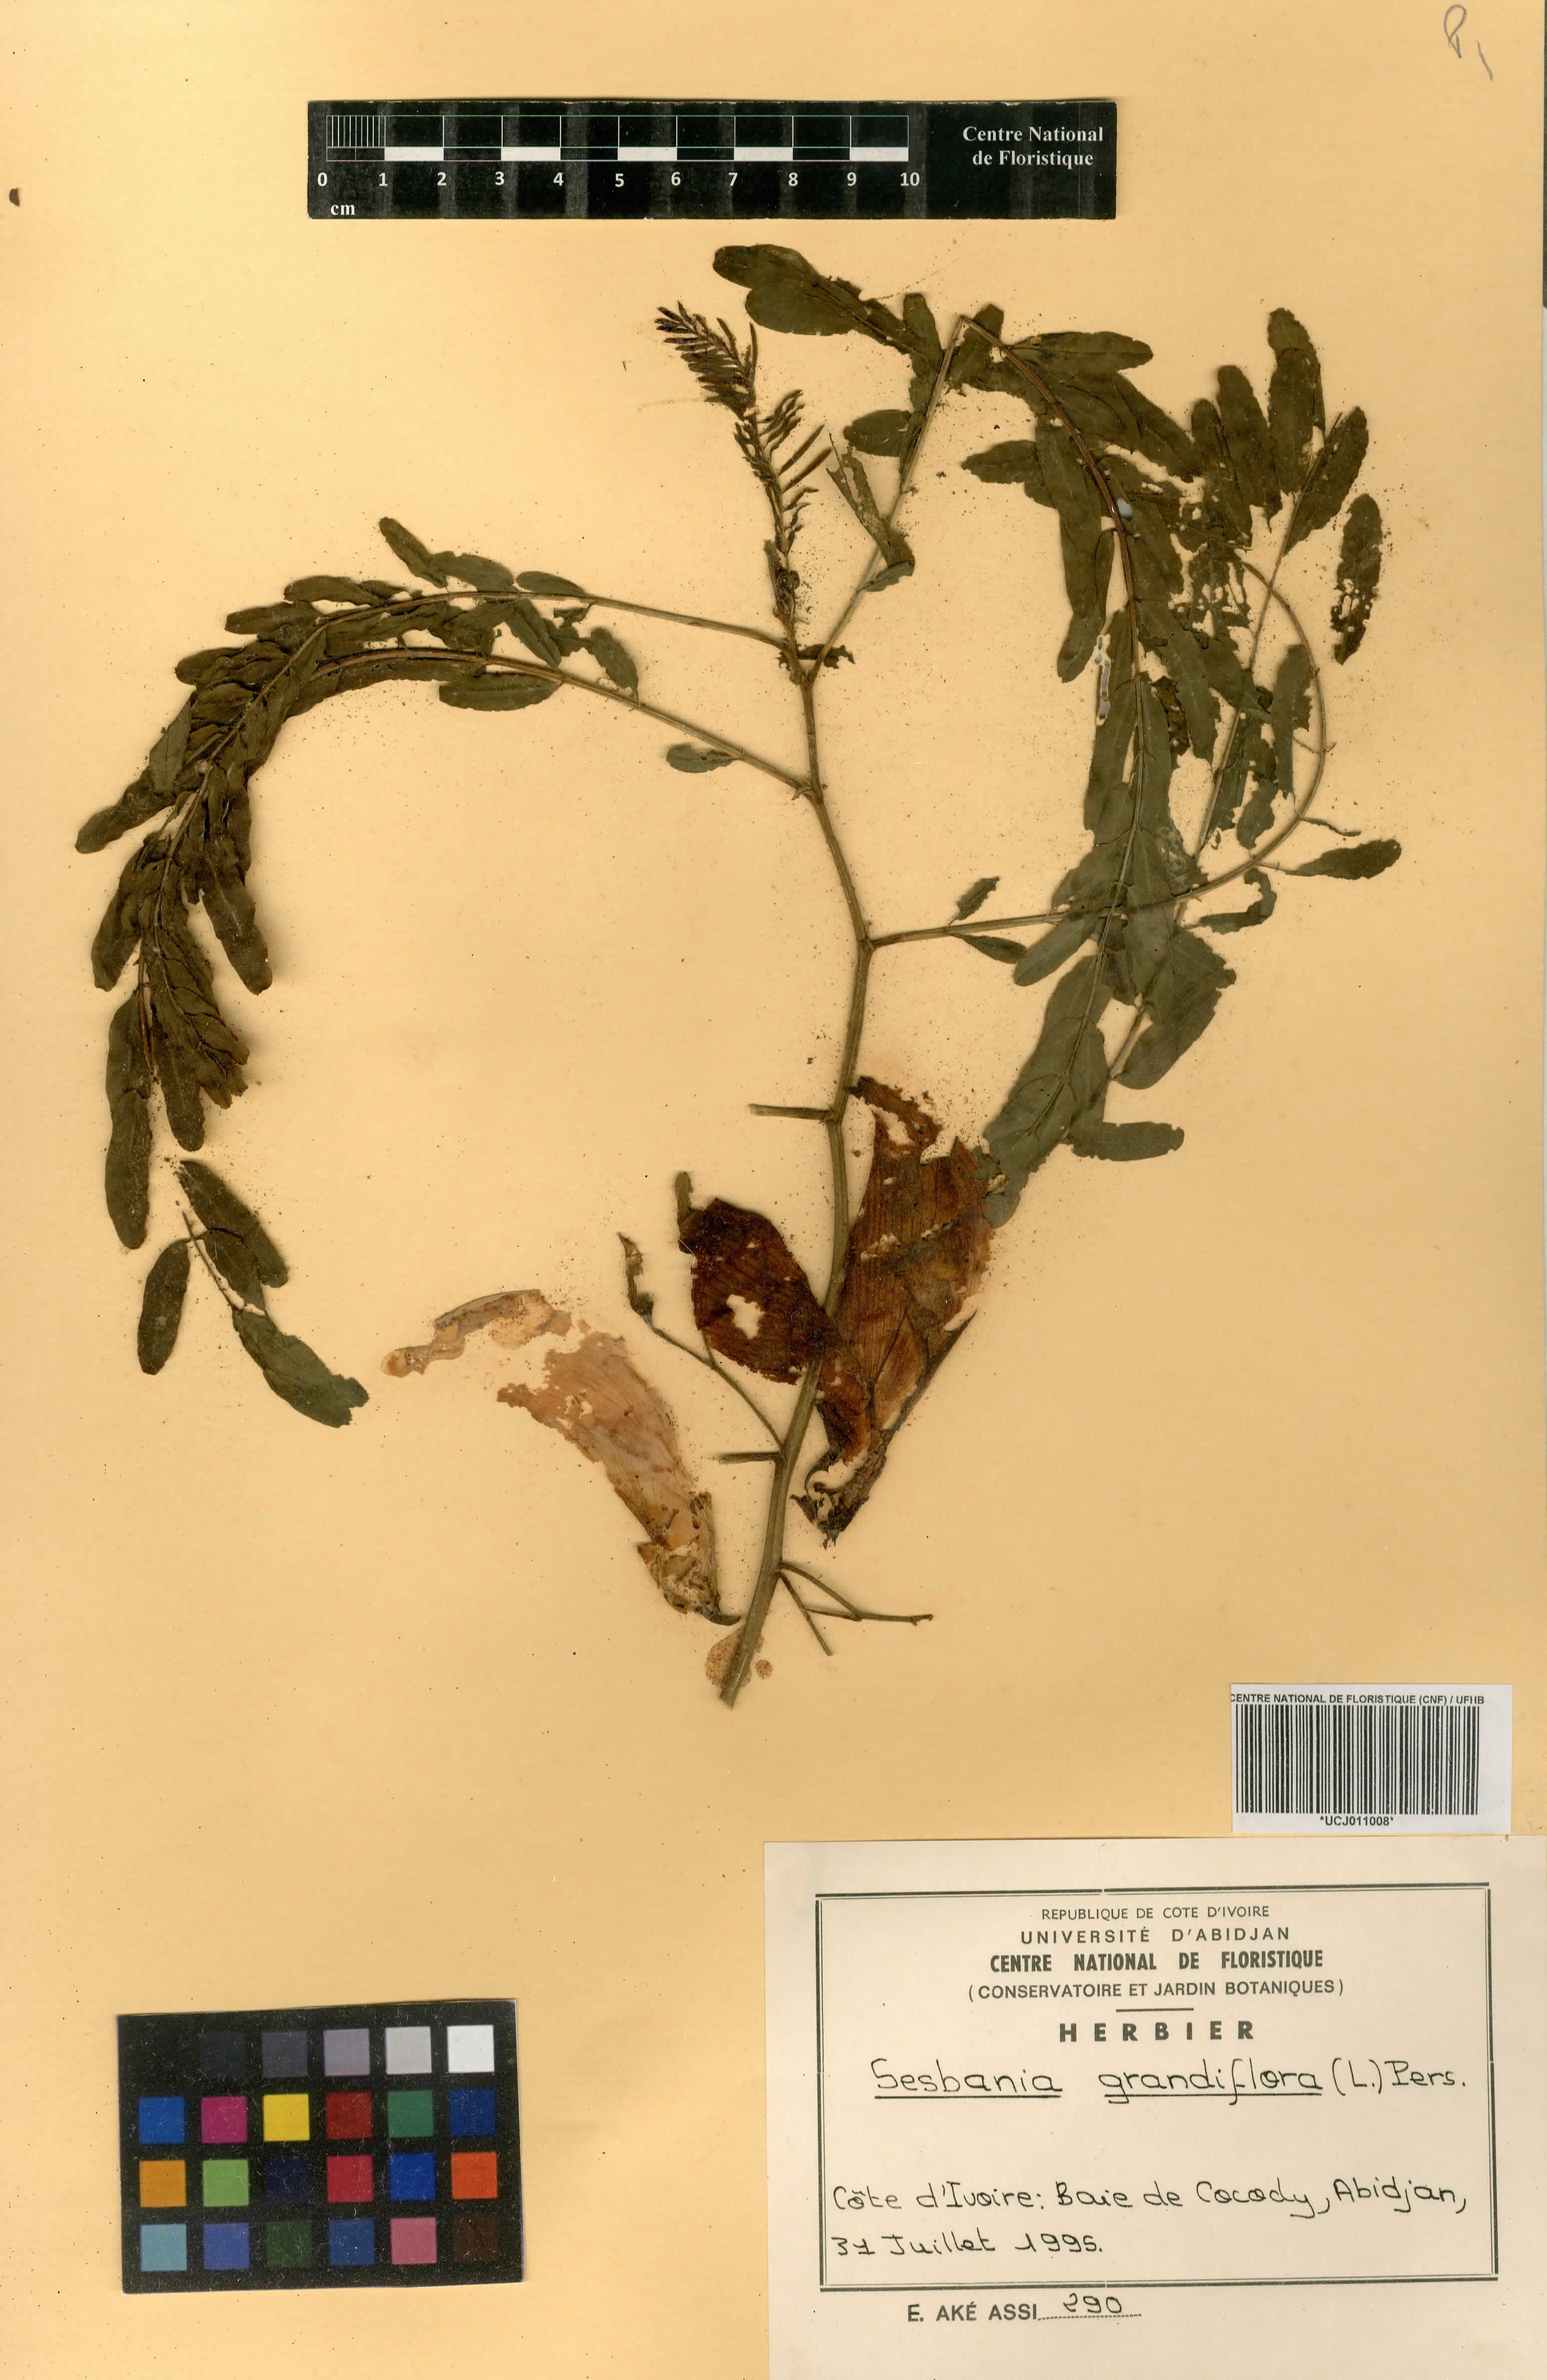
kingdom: Plantae
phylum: Tracheophyta
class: Magnoliopsida
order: Fabales
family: Fabaceae
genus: Sesbania
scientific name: Sesbania grandiflora
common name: Vegetable-hummingbird
